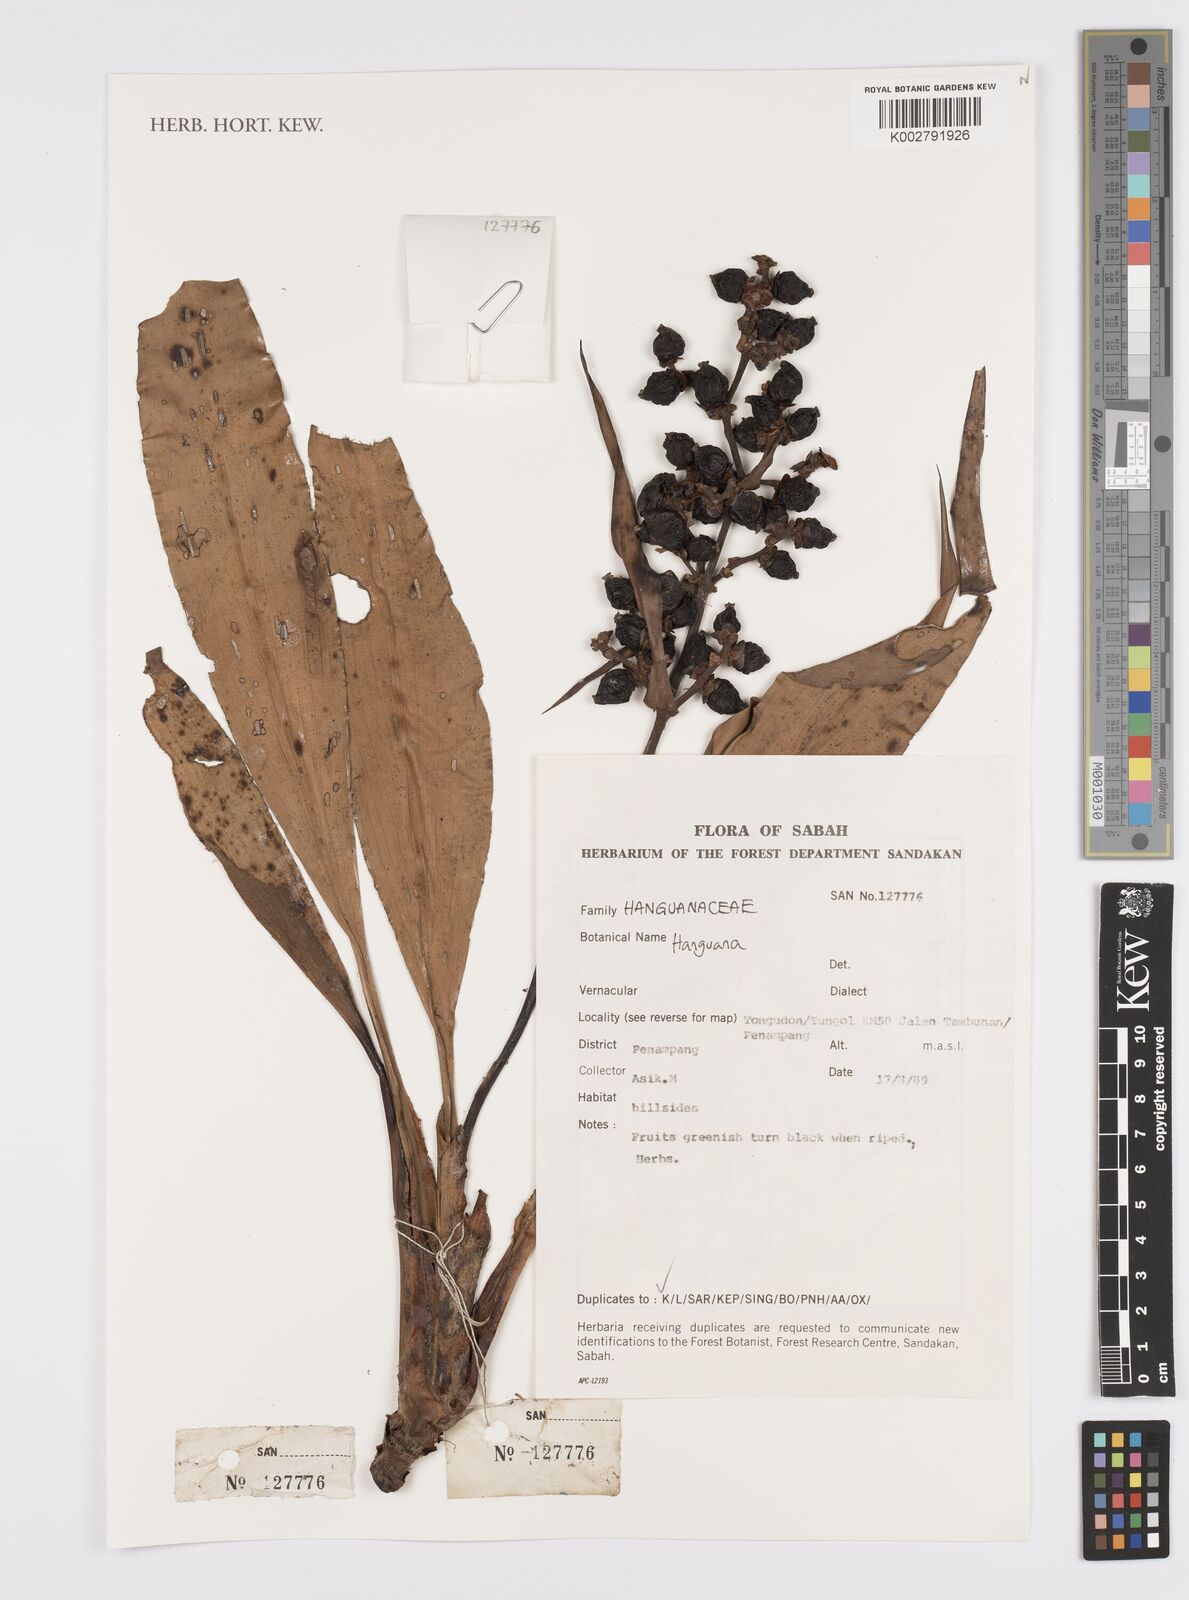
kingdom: Plantae
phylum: Tracheophyta
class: Liliopsida
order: Commelinales
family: Hanguanaceae
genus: Hanguana
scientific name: Hanguana
